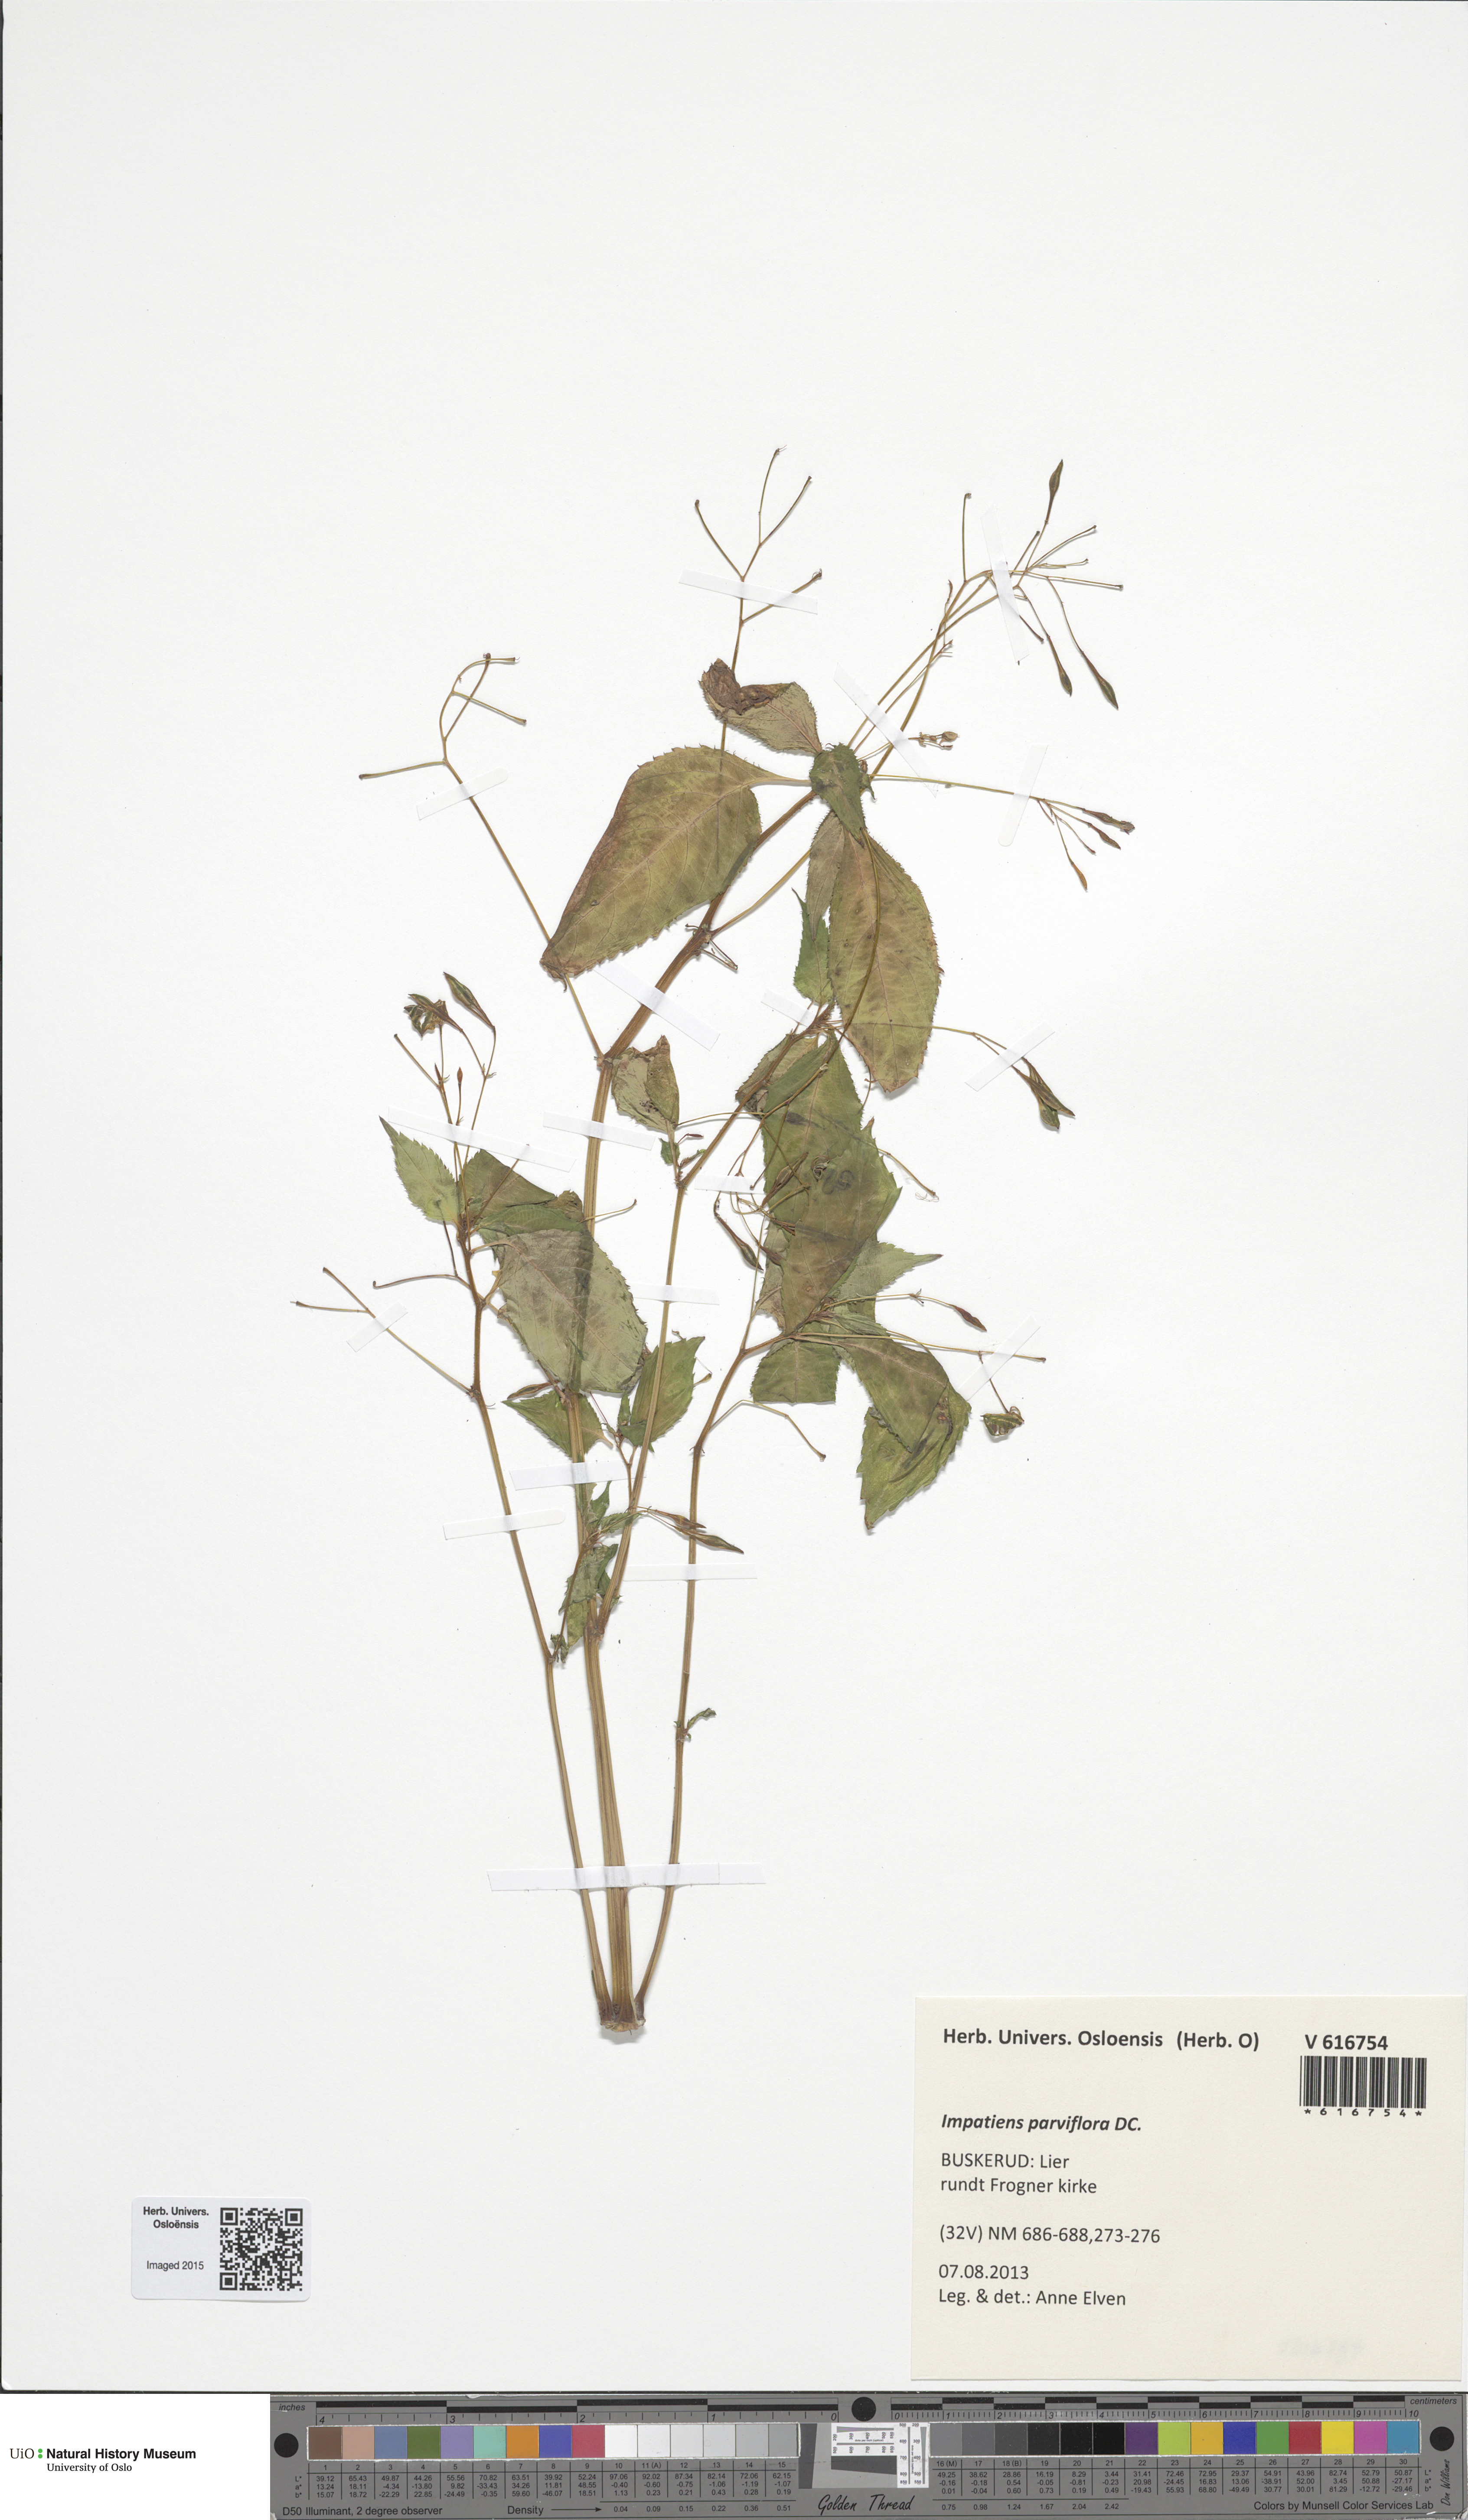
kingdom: Plantae
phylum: Tracheophyta
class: Magnoliopsida
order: Ericales
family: Balsaminaceae
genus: Impatiens
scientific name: Impatiens parviflora
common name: Small balsam
